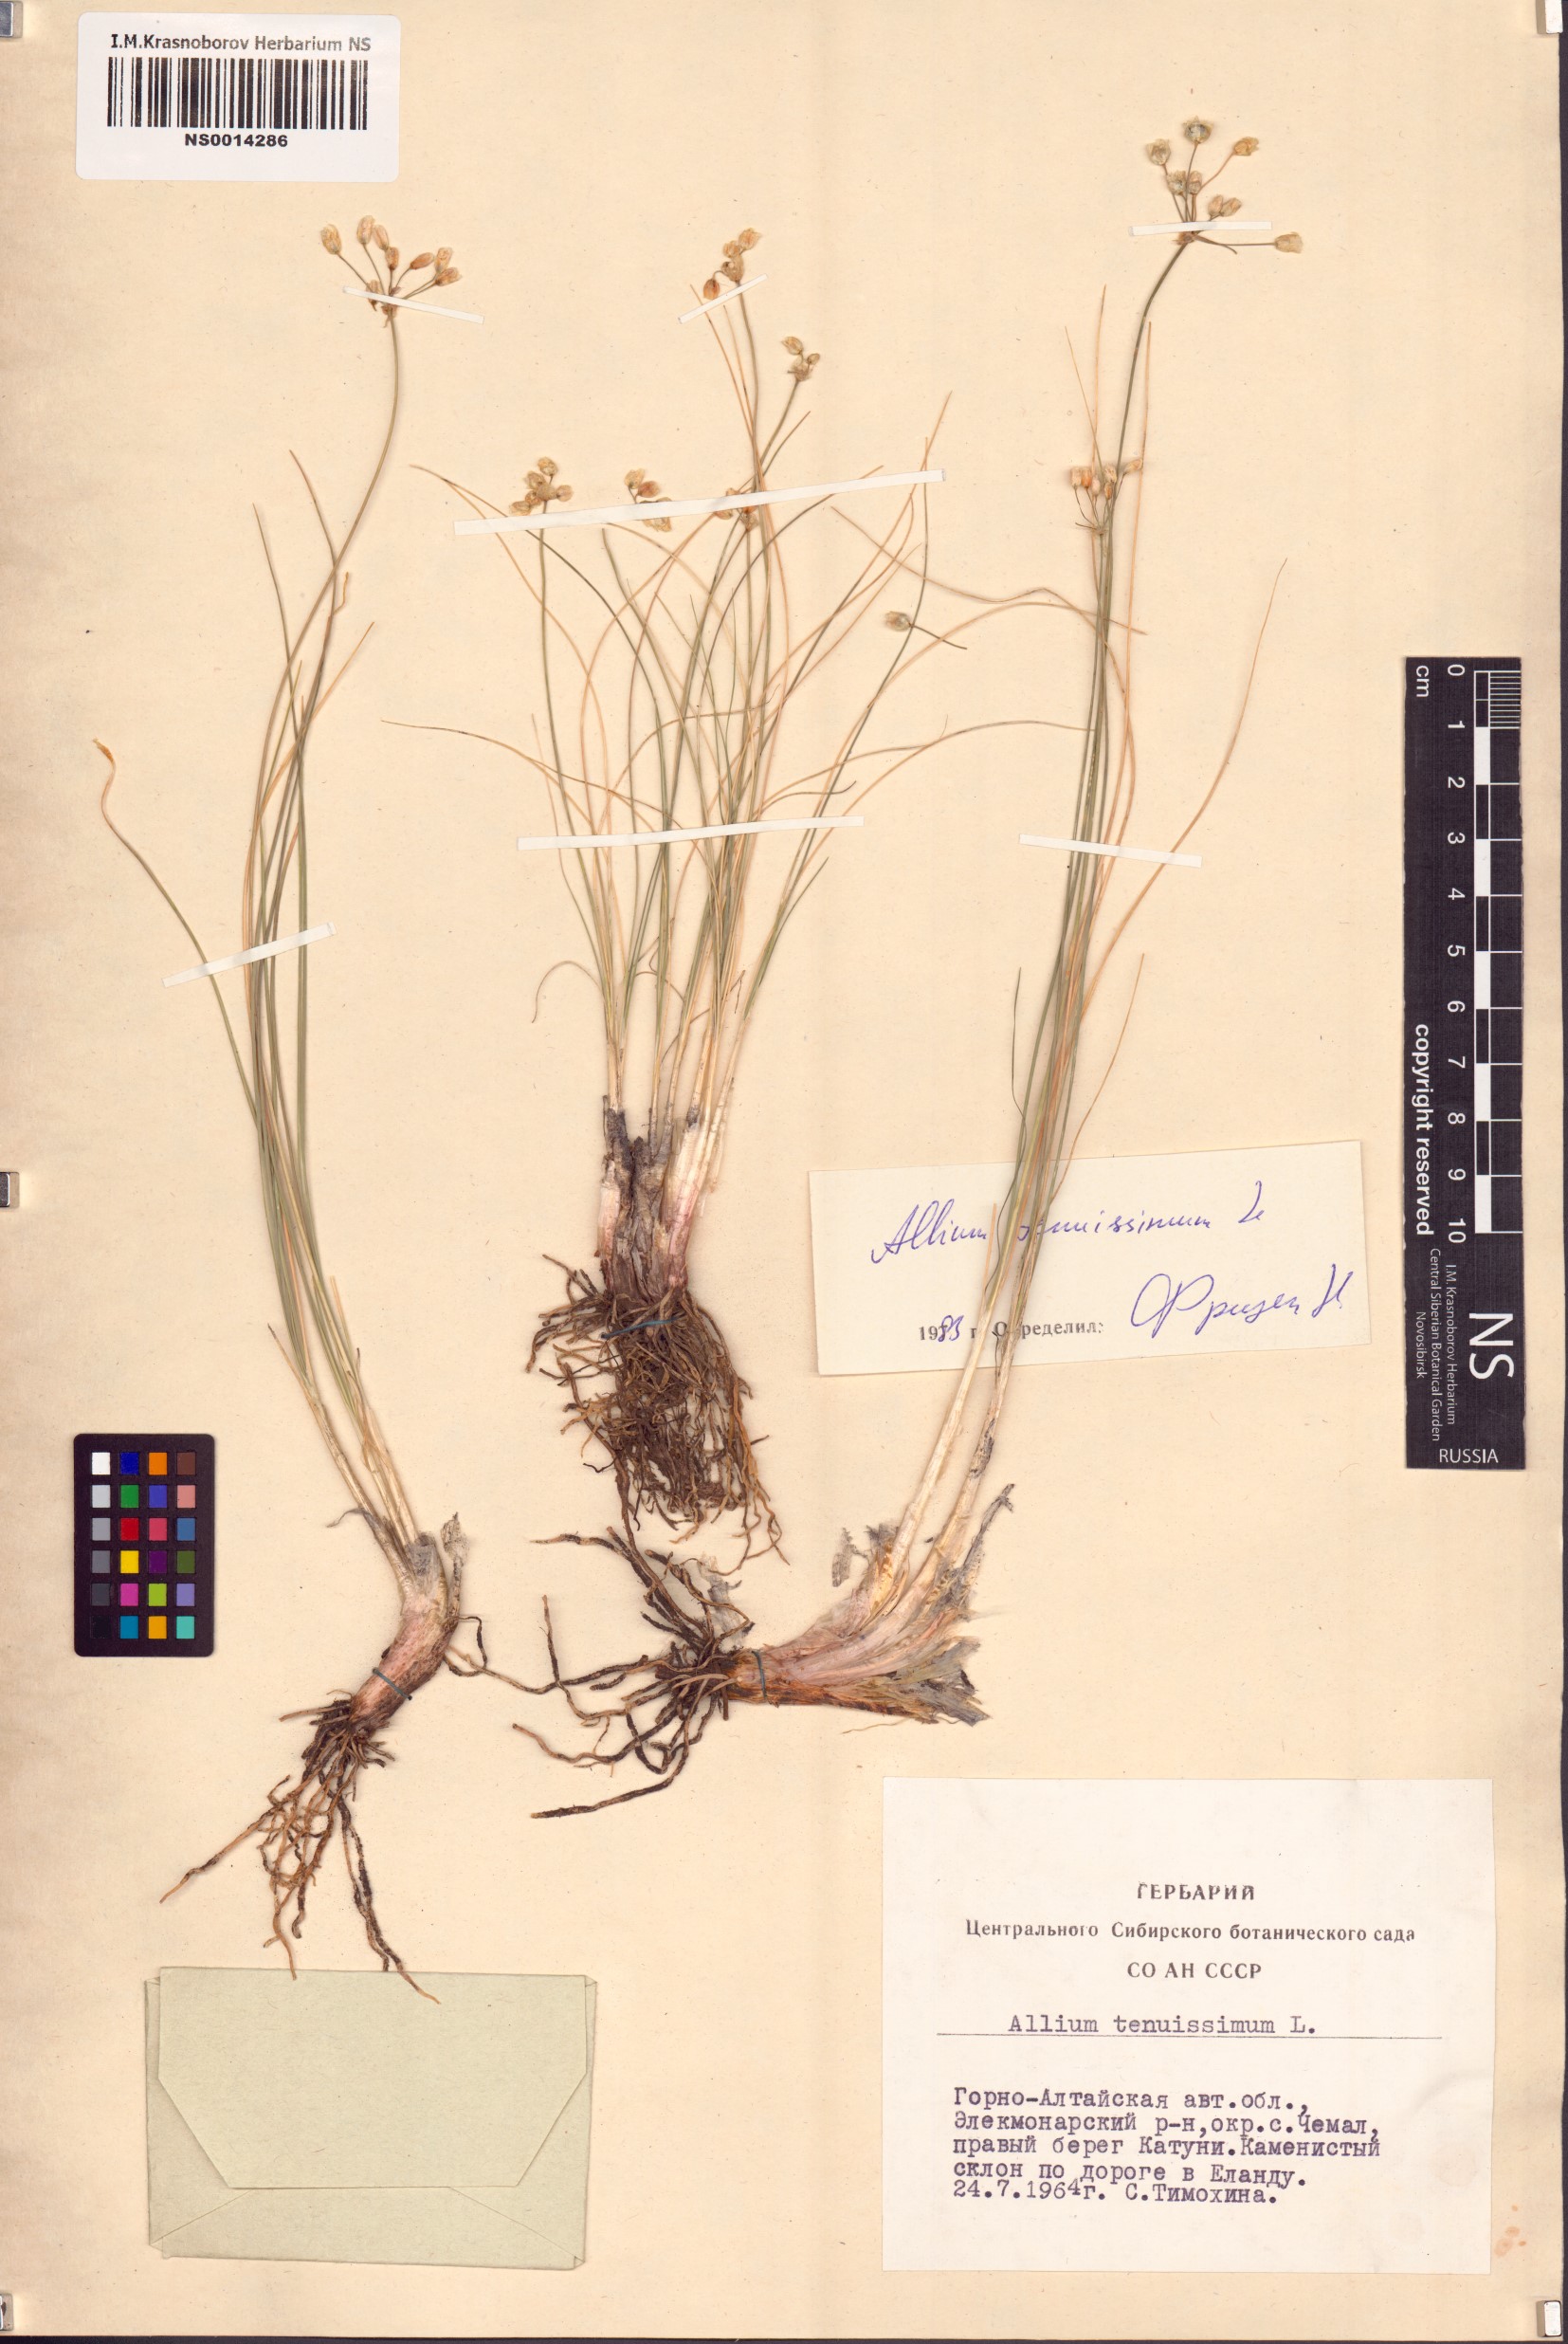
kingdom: Plantae
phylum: Tracheophyta
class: Liliopsida
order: Asparagales
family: Amaryllidaceae
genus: Allium
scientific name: Allium tenuissimum
